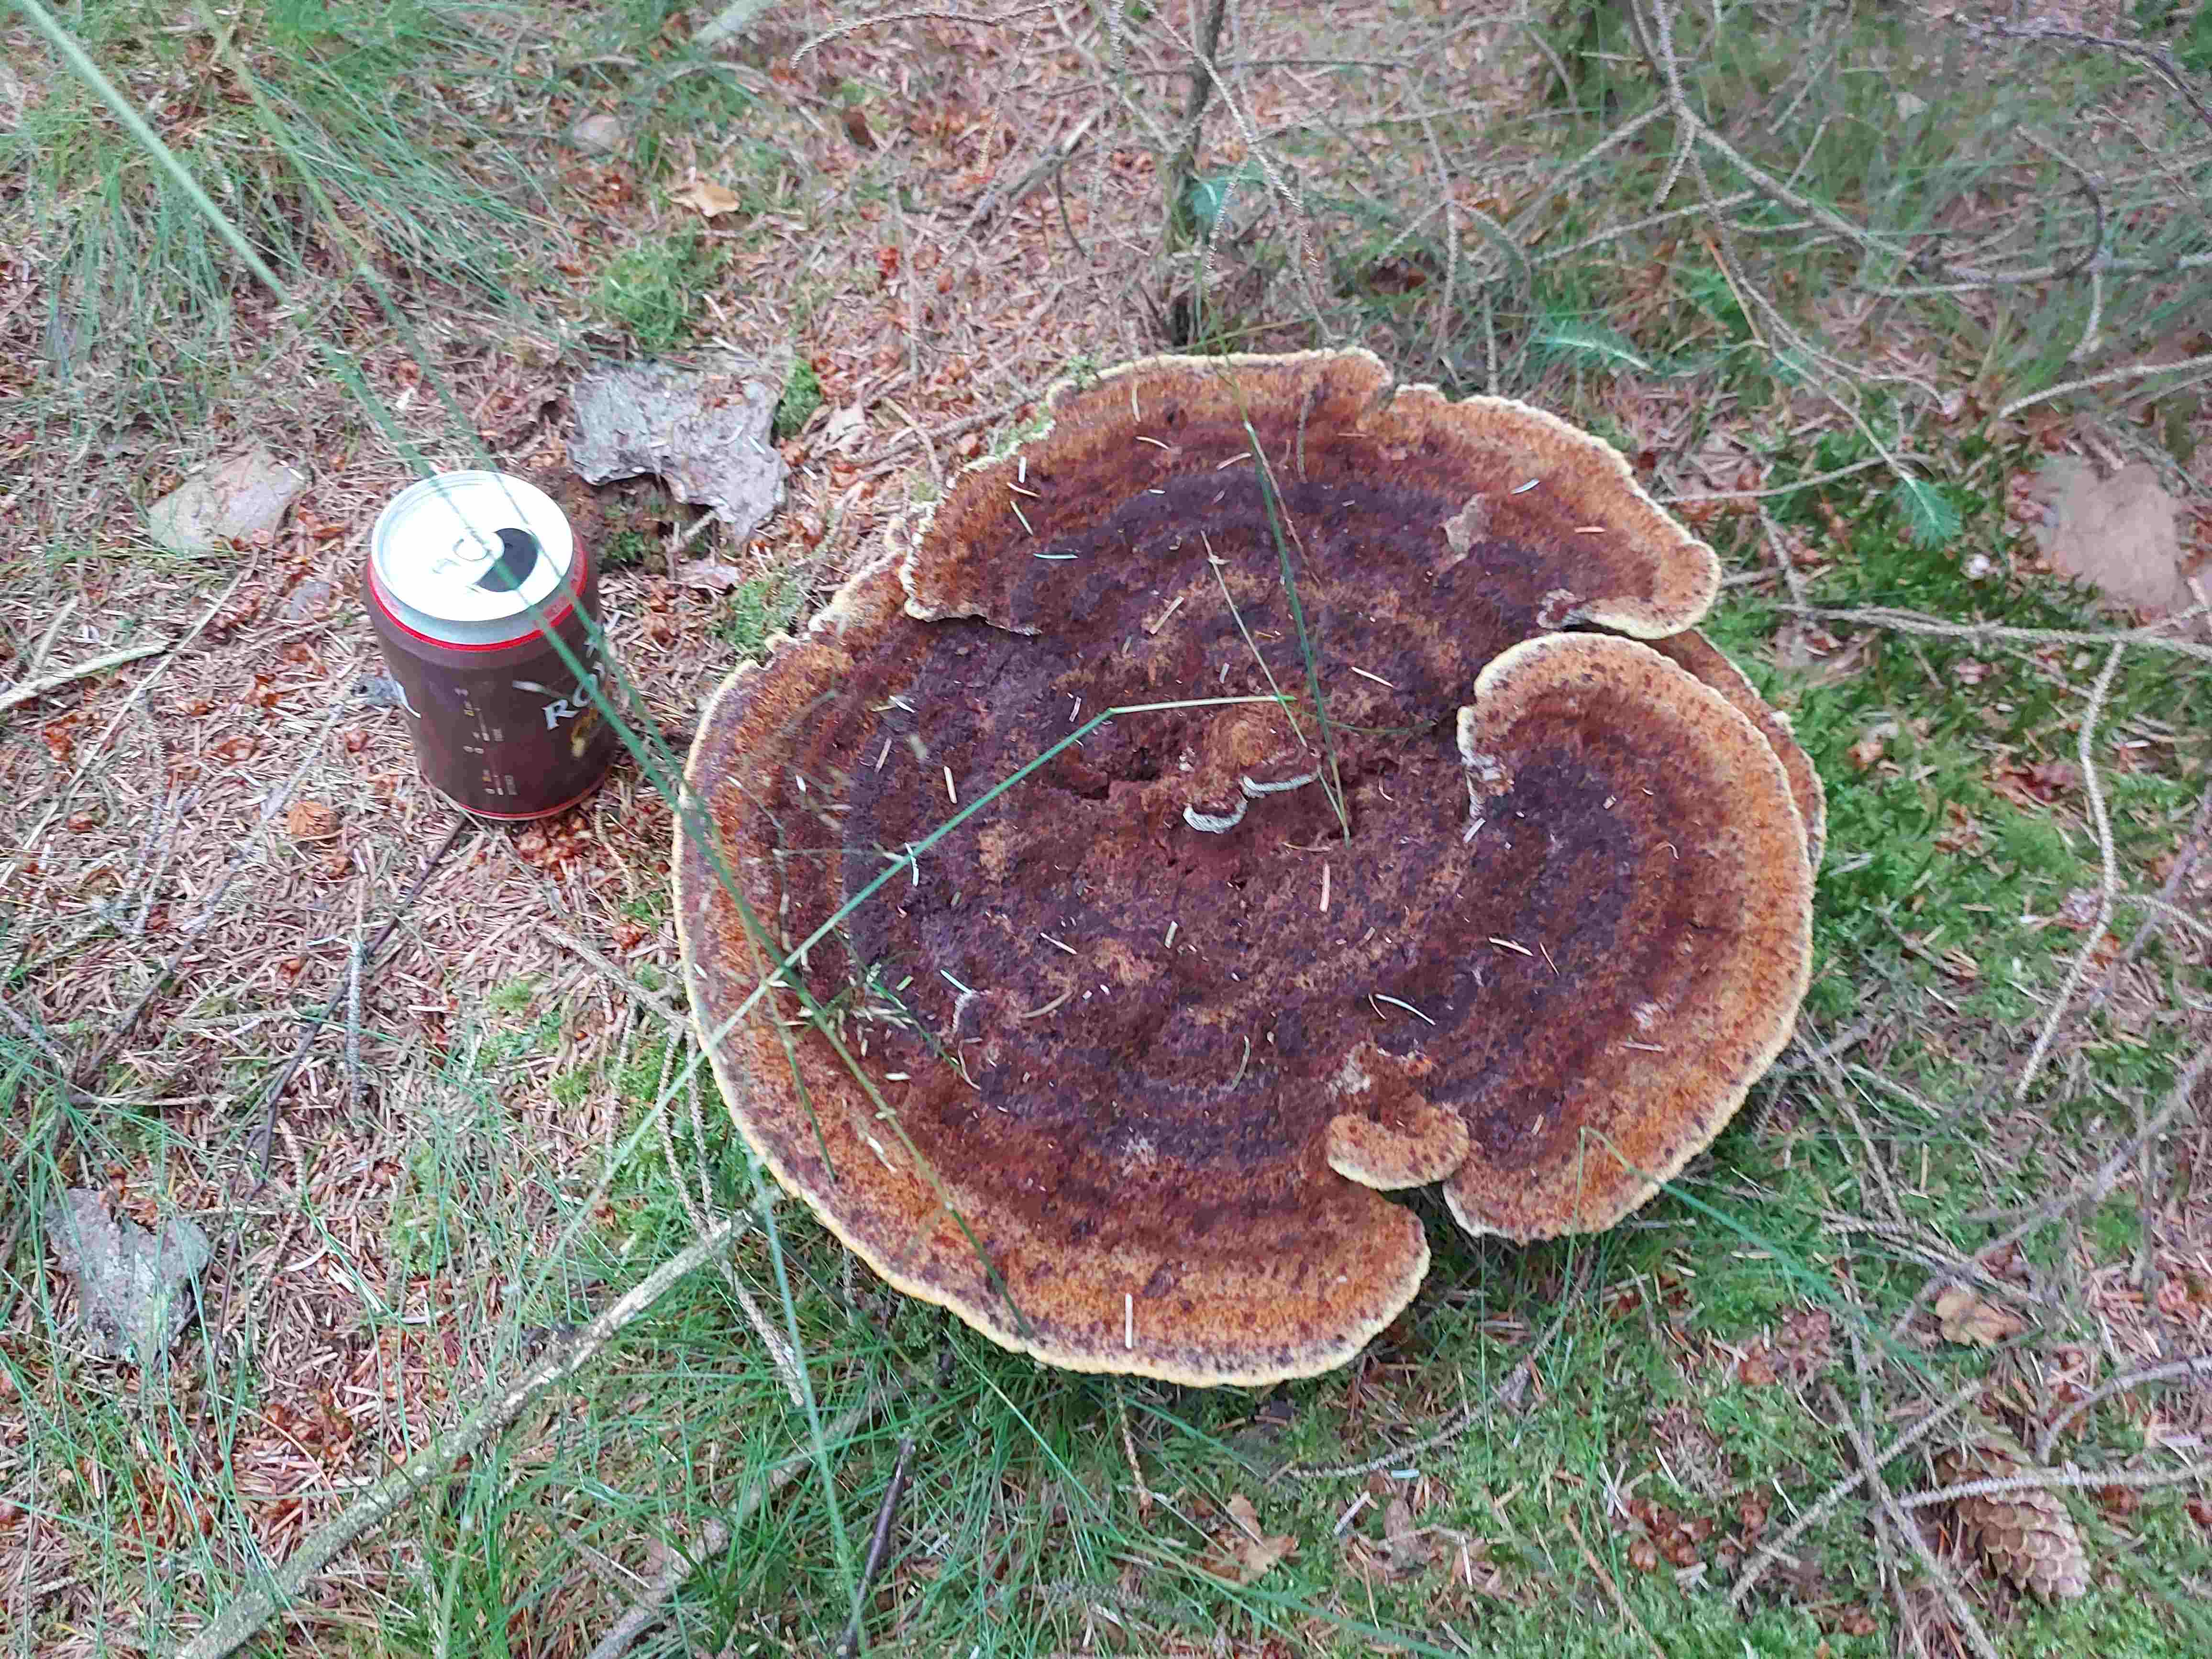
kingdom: Fungi
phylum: Basidiomycota
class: Agaricomycetes
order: Polyporales
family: Laetiporaceae
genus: Phaeolus
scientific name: Phaeolus schweinitzii
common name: brunporesvamp
